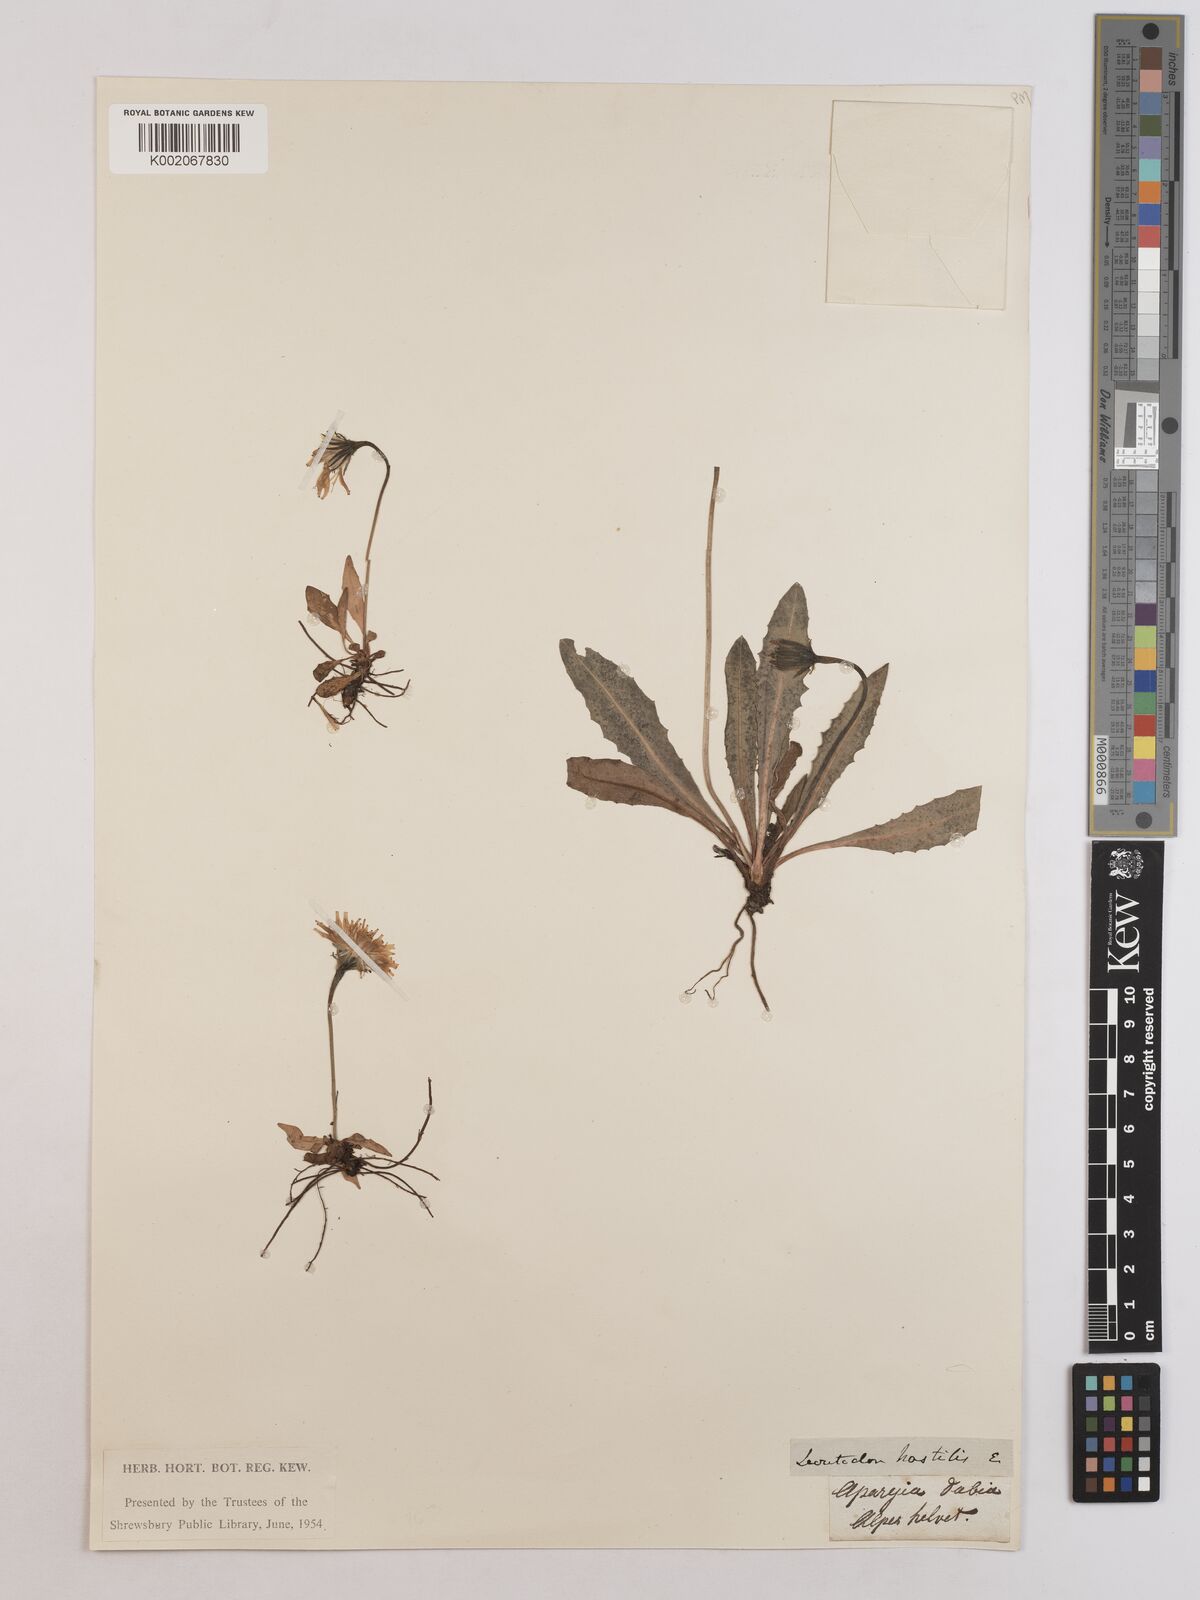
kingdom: Plantae
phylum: Tracheophyta
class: Magnoliopsida
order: Asterales
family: Asteraceae
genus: Leontodon
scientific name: Leontodon hispidus
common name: Rough hawkbit
